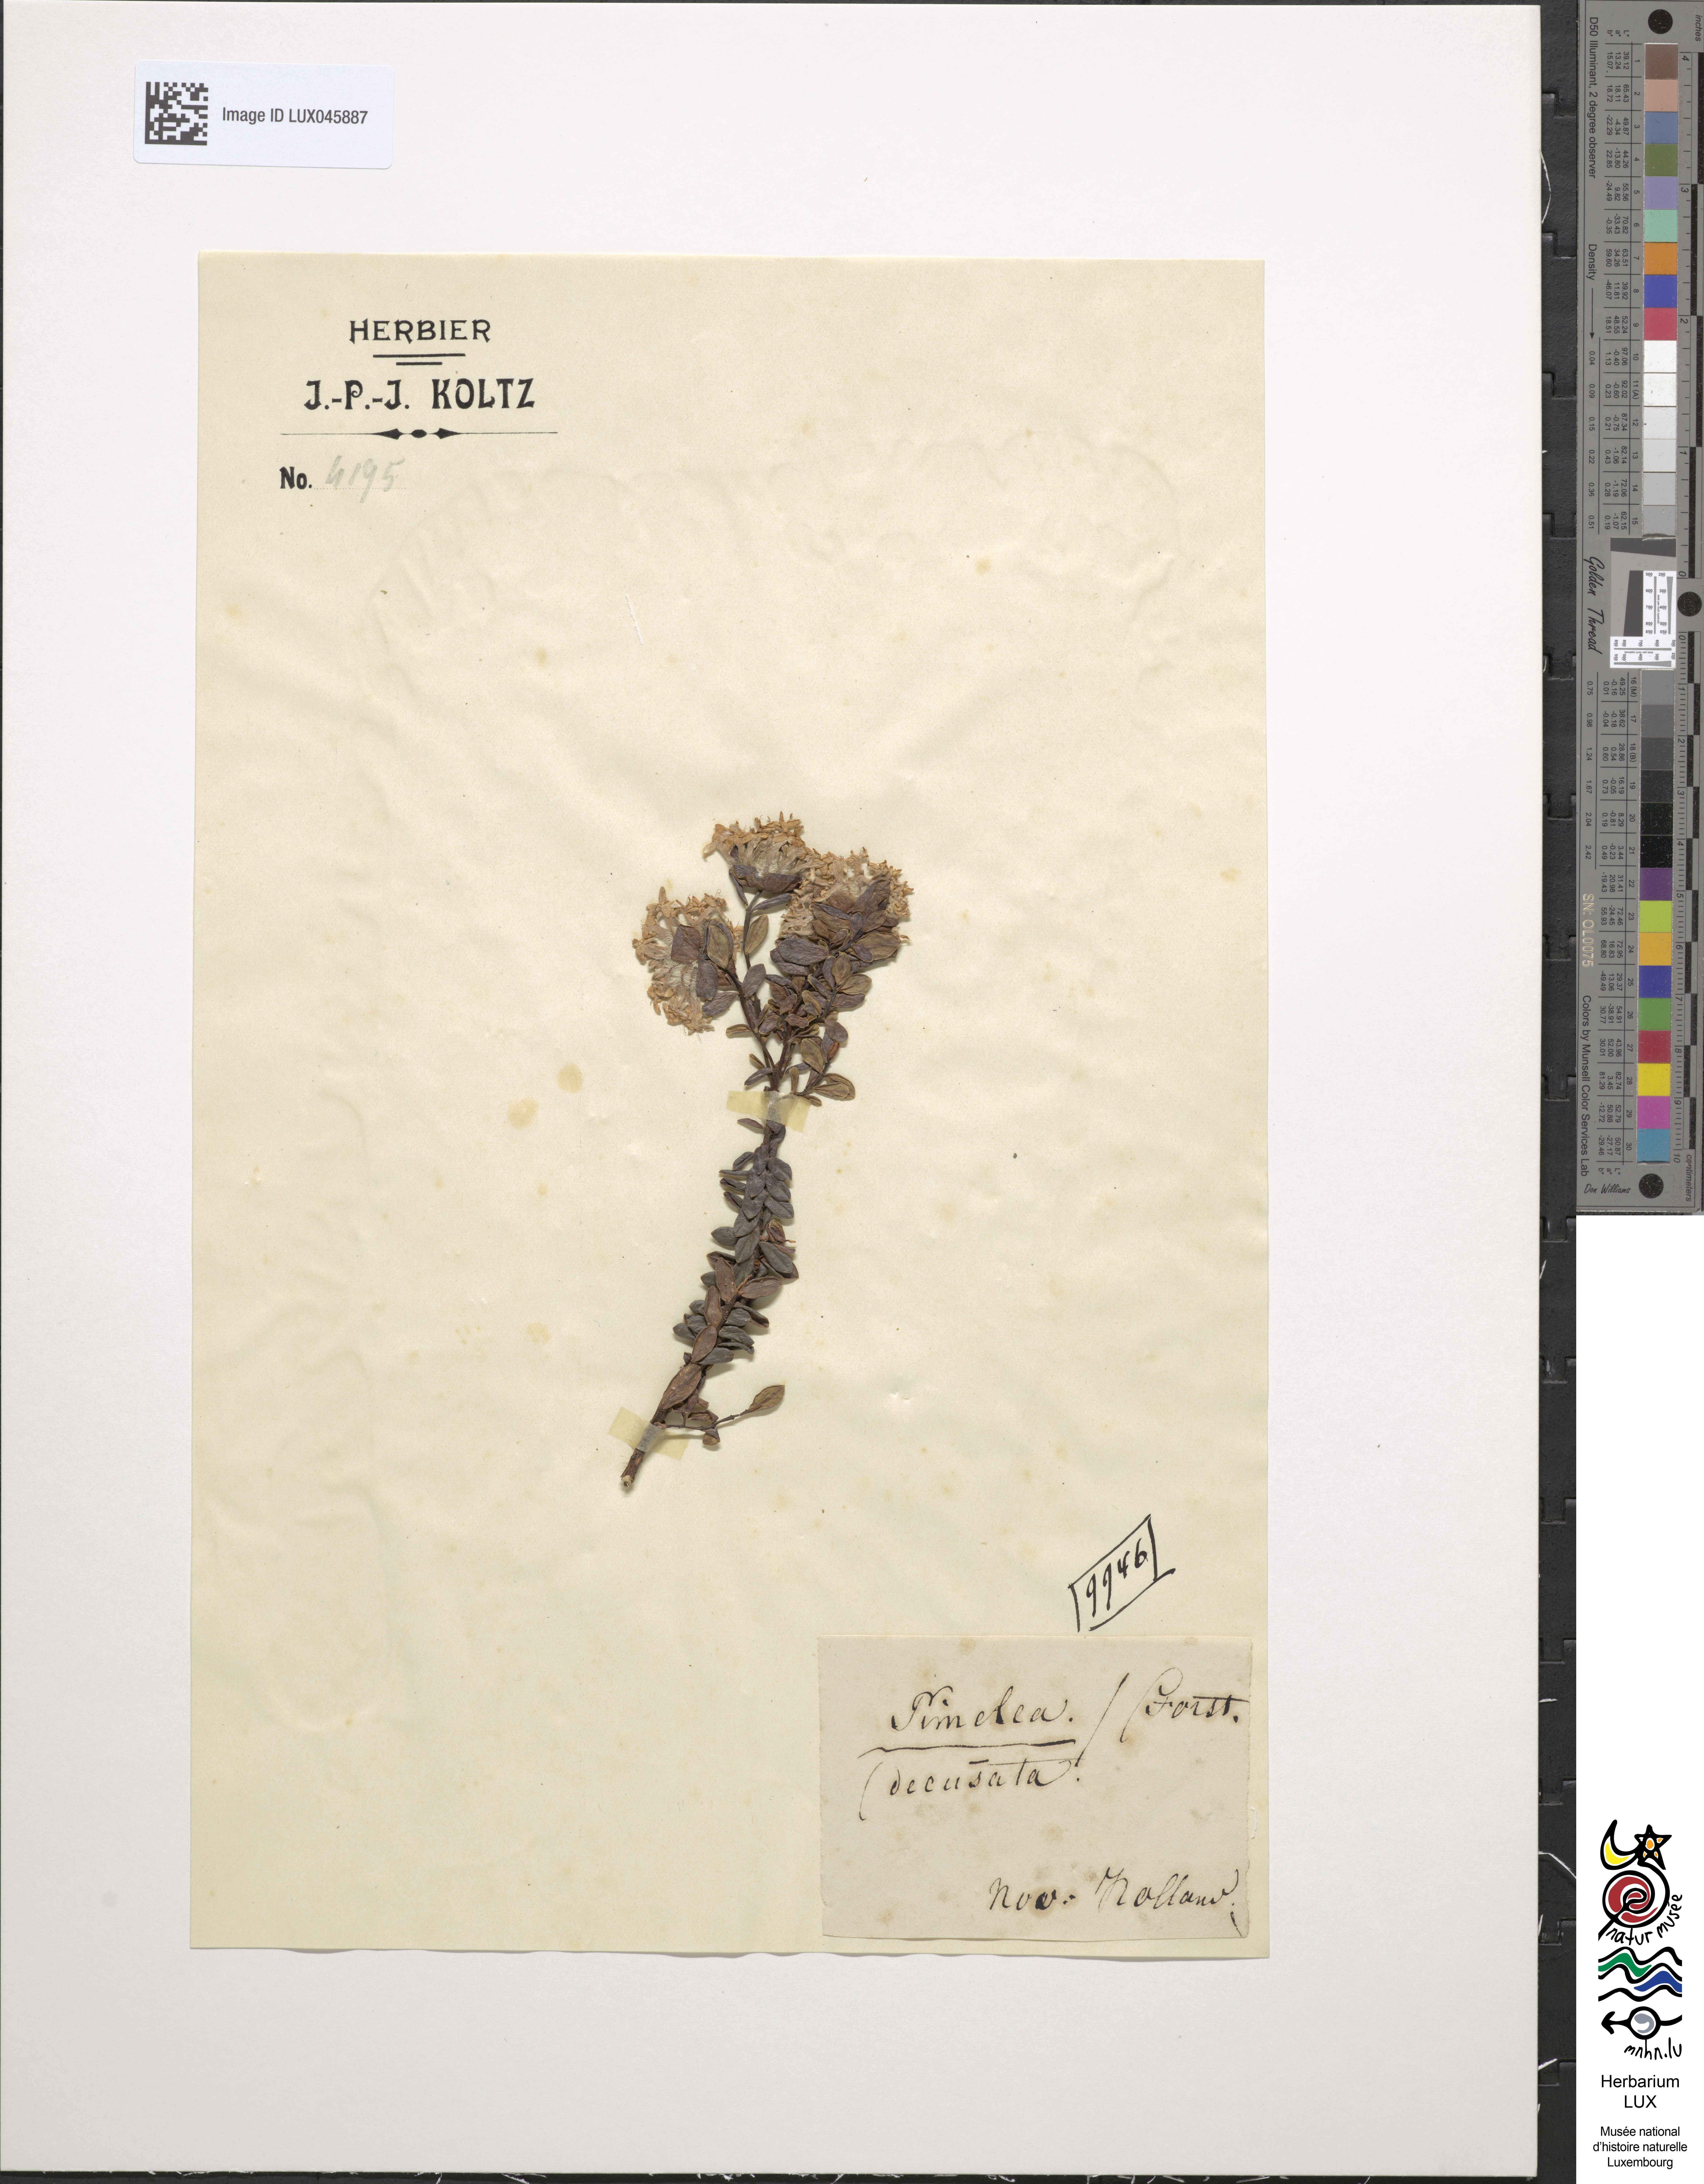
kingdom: Plantae
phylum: Tracheophyta
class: Magnoliopsida
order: Malvales
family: Thymelaeaceae
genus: Thymelaea
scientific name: Thymelaea
